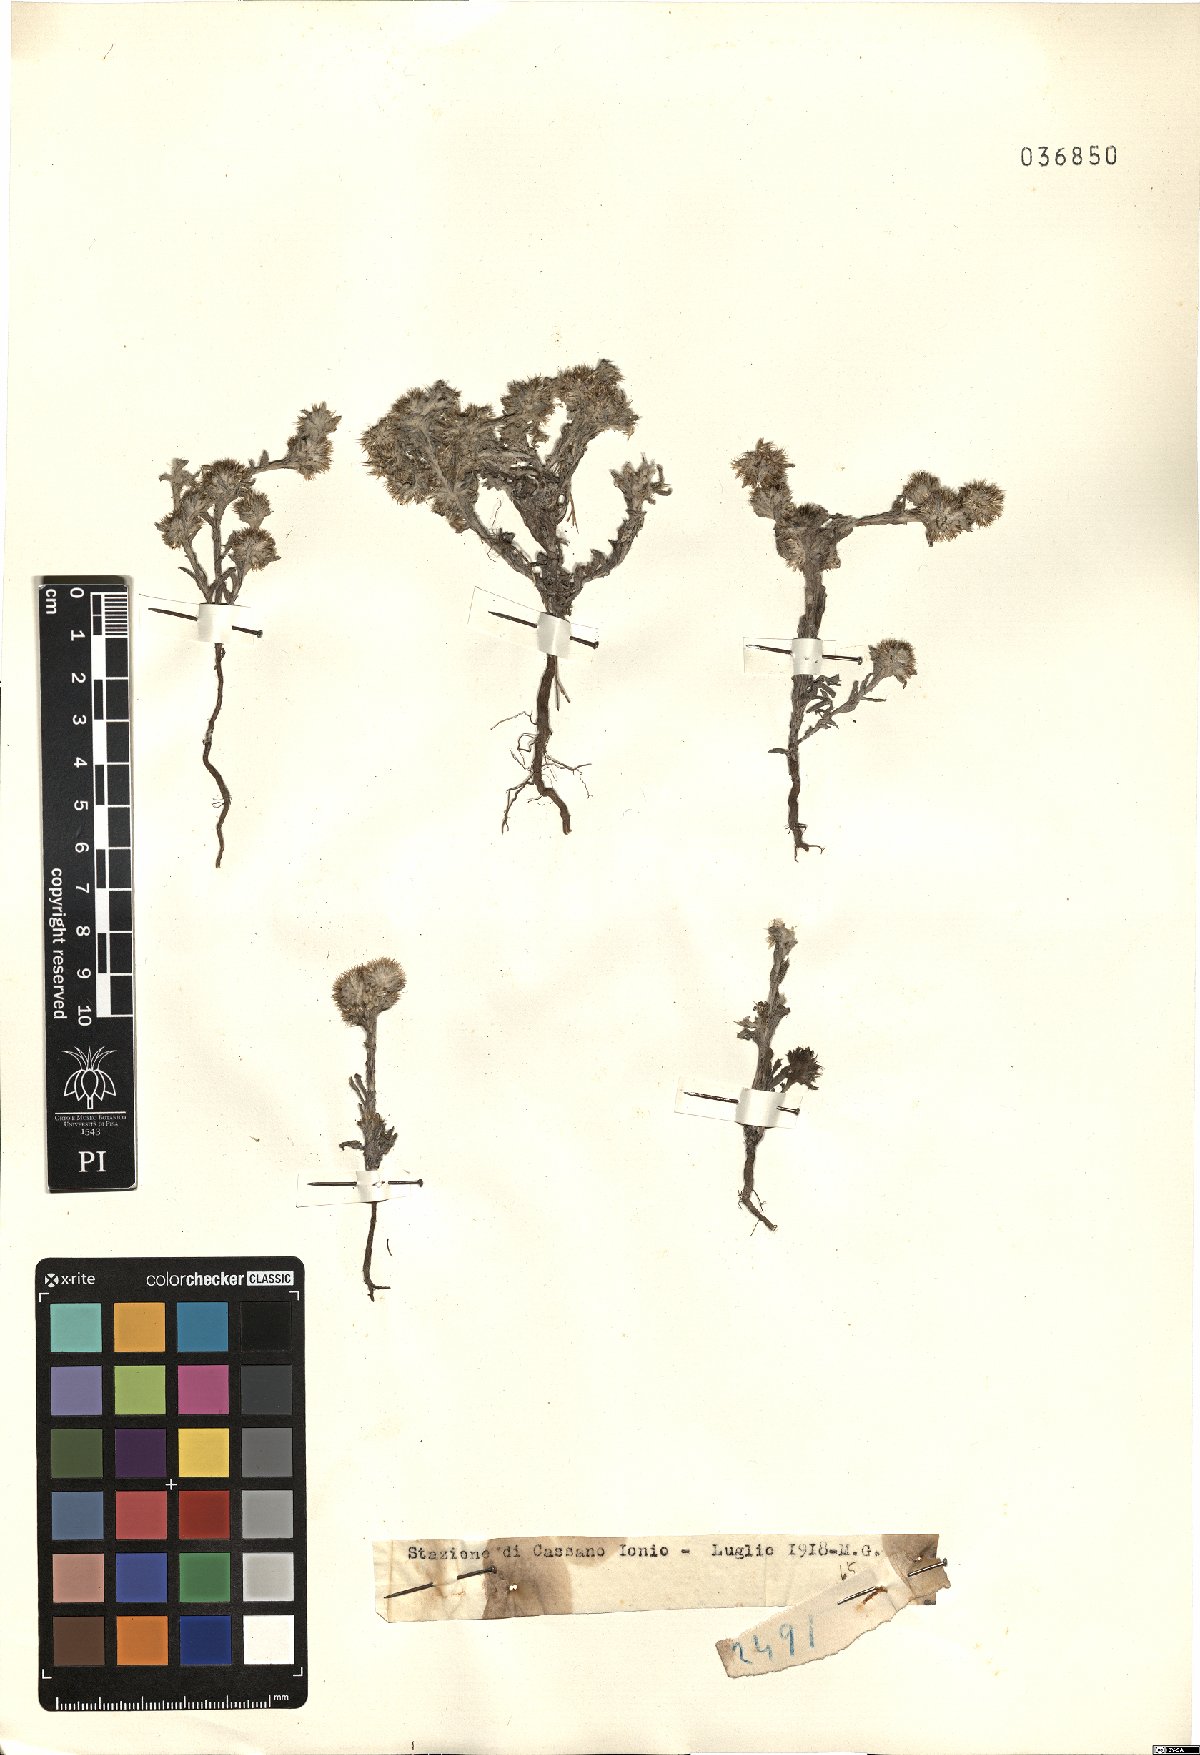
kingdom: Plantae
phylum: Tracheophyta
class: Magnoliopsida
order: Asterales
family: Asteraceae
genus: Filago
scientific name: Filago
